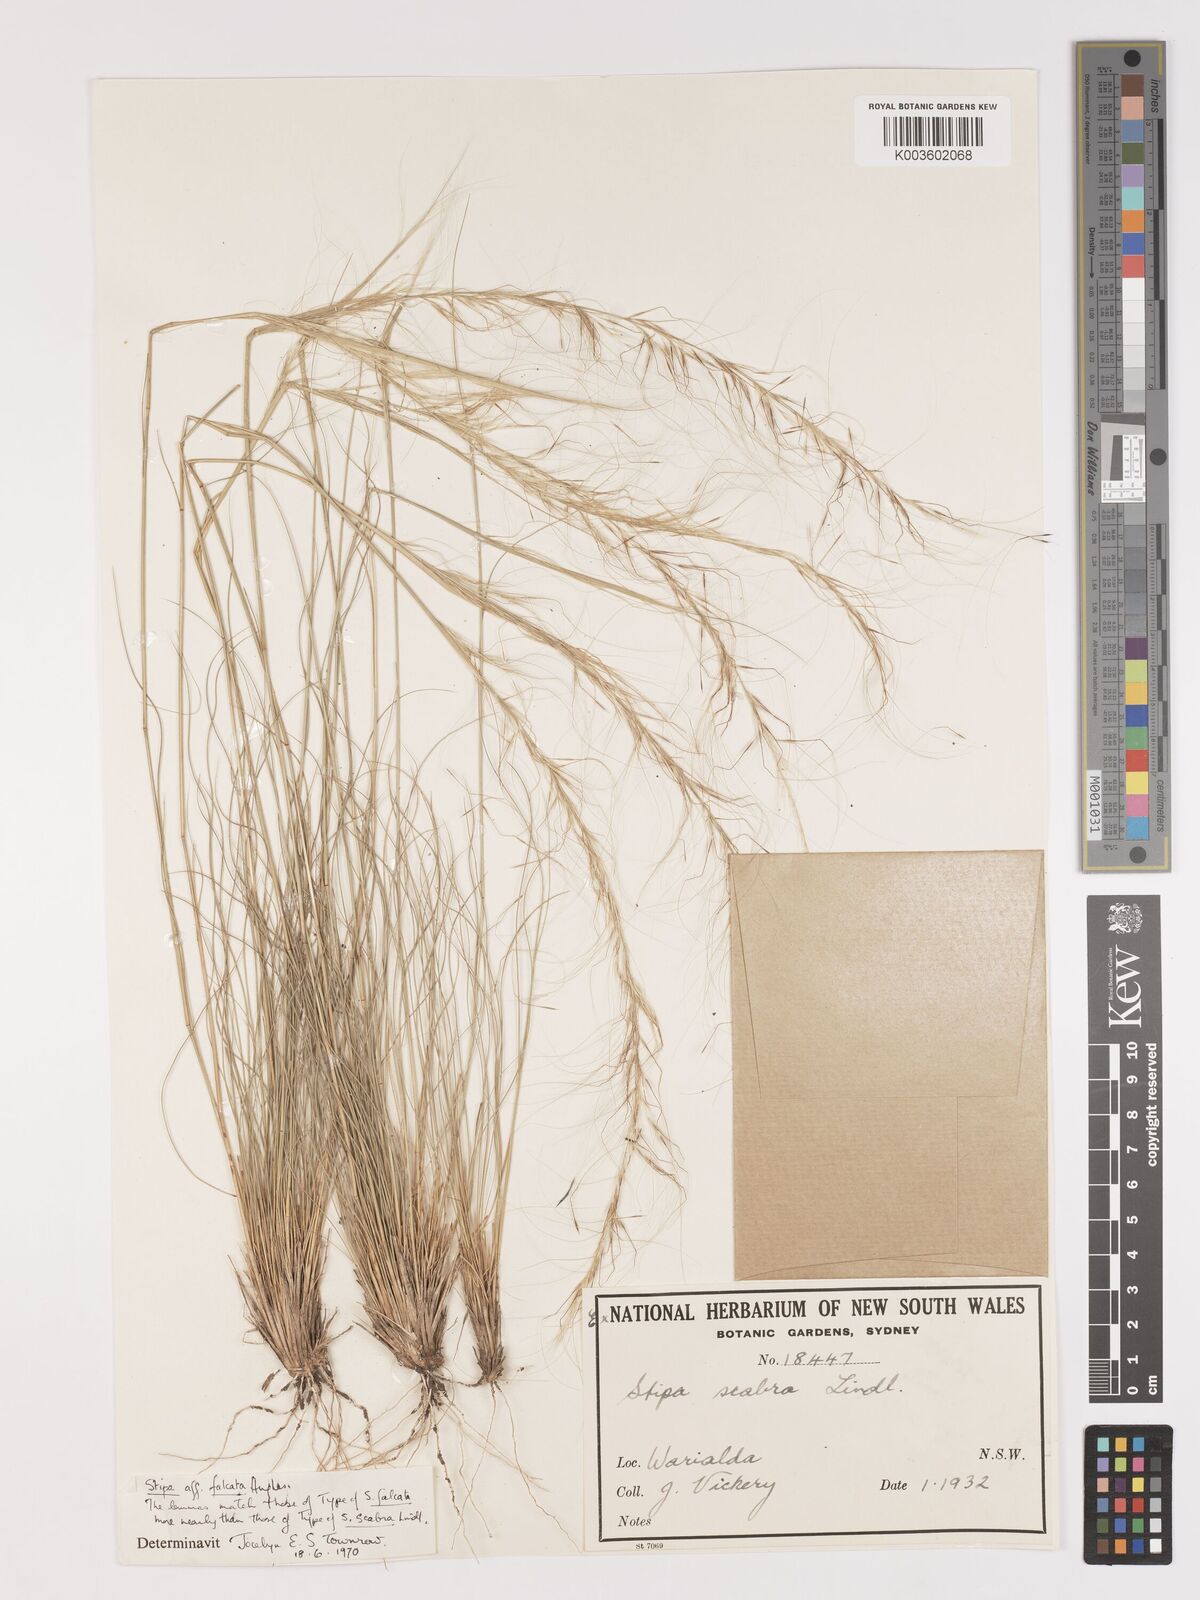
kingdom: Plantae
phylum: Tracheophyta
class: Liliopsida
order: Poales
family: Poaceae
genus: Austrostipa
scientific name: Austrostipa scabra
